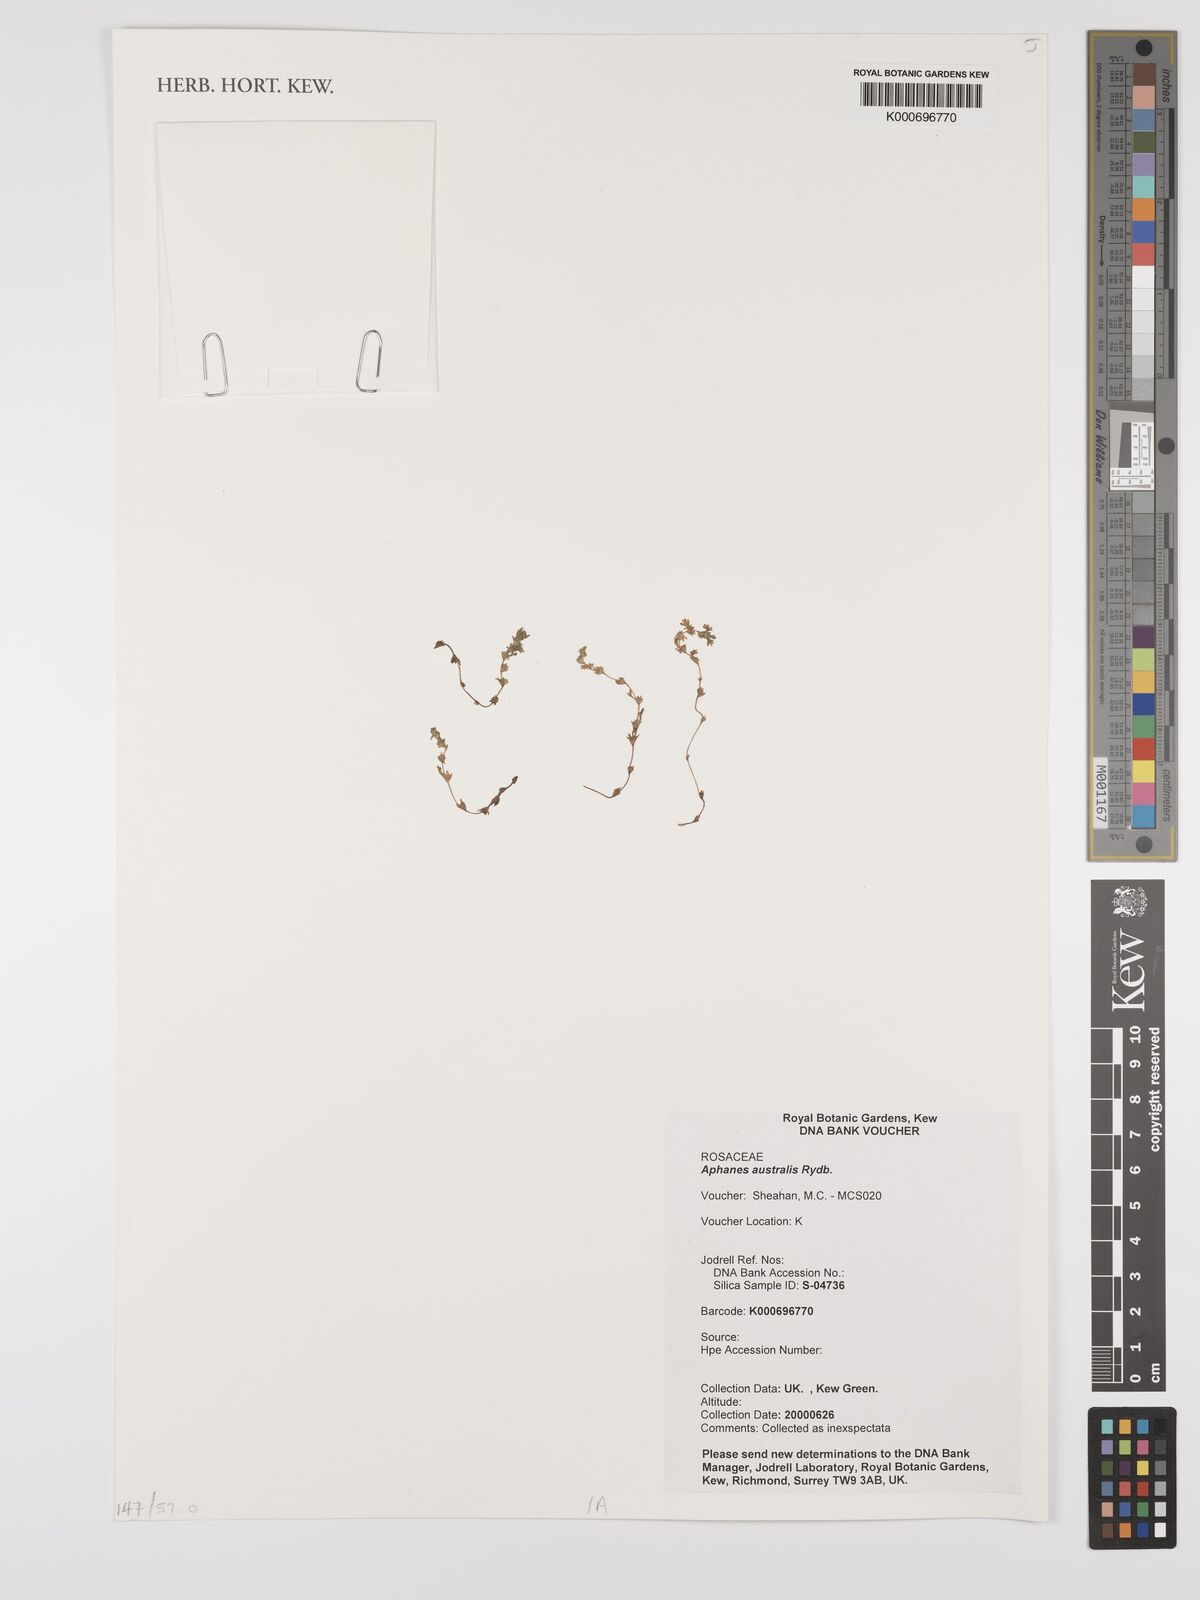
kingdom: Plantae
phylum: Tracheophyta
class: Magnoliopsida
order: Rosales
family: Rosaceae
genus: Aphanes
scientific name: Aphanes australis
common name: Slender parsley-piert
